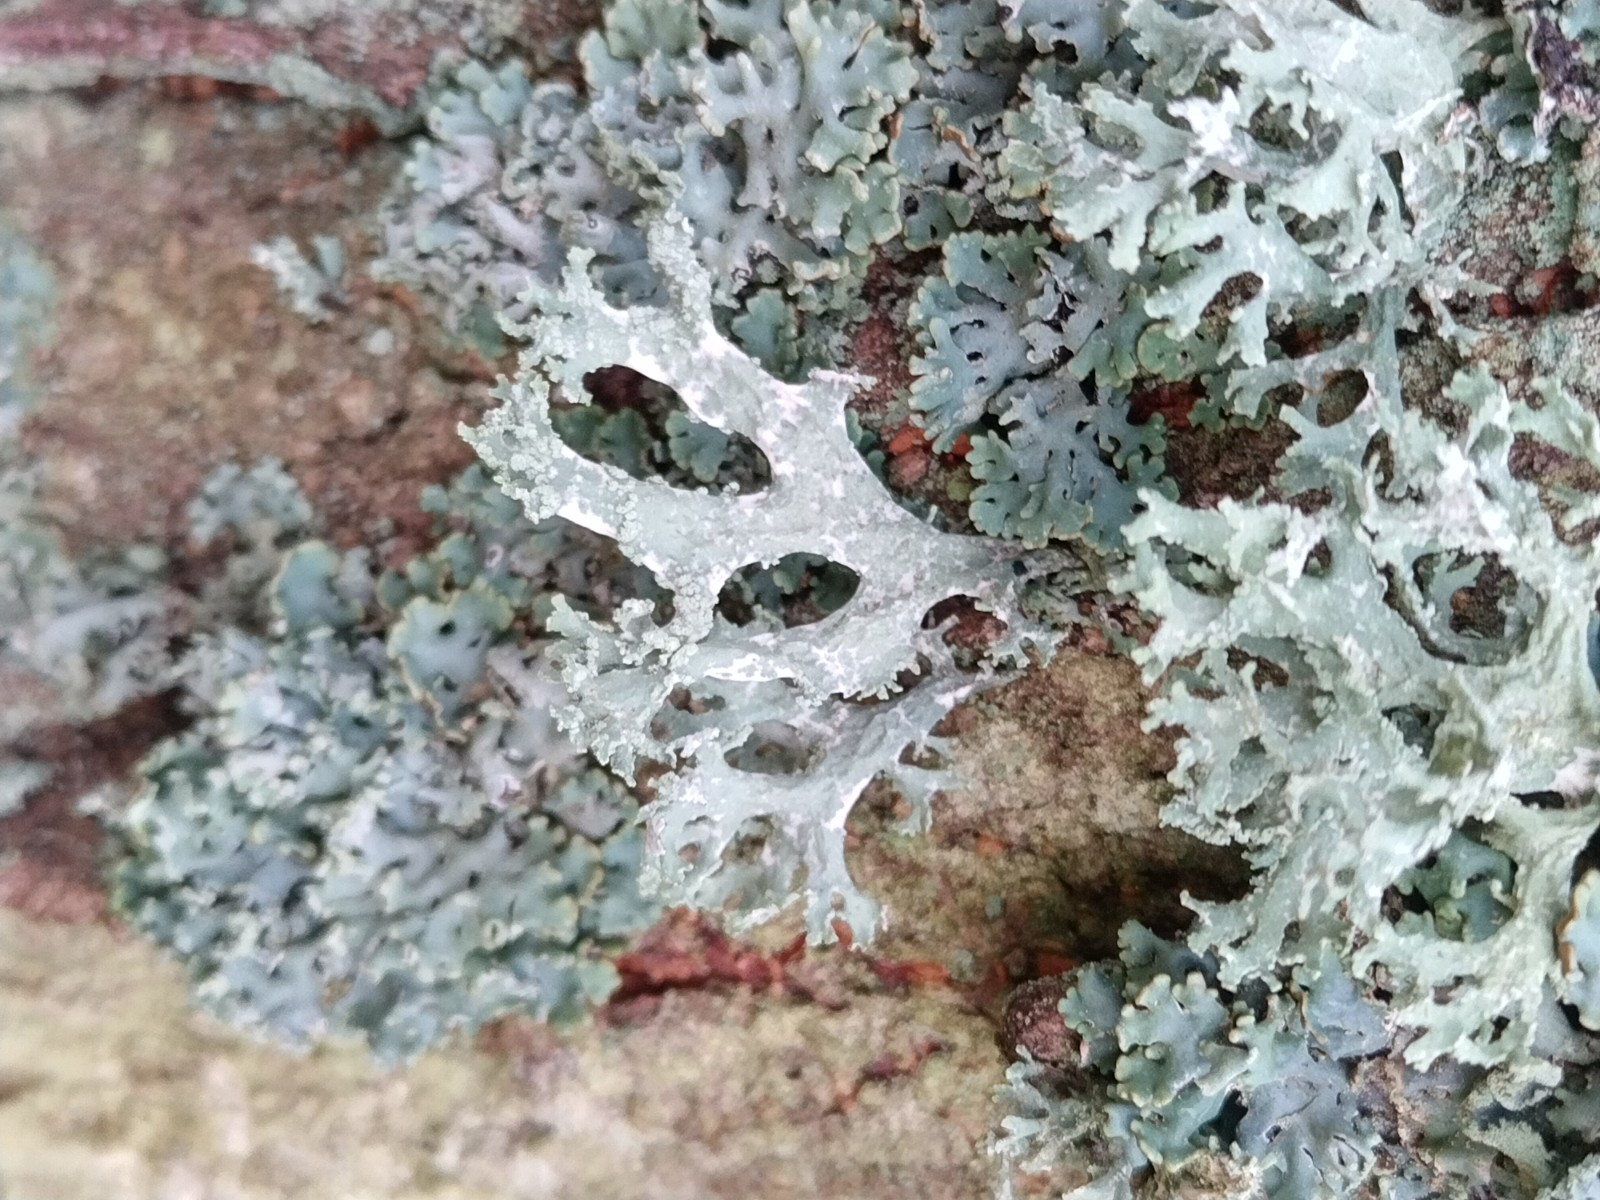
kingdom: Fungi
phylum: Ascomycota
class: Lecanoromycetes
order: Lecanorales
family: Parmeliaceae
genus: Evernia
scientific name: Evernia prunastri
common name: almindelig slåenlav
